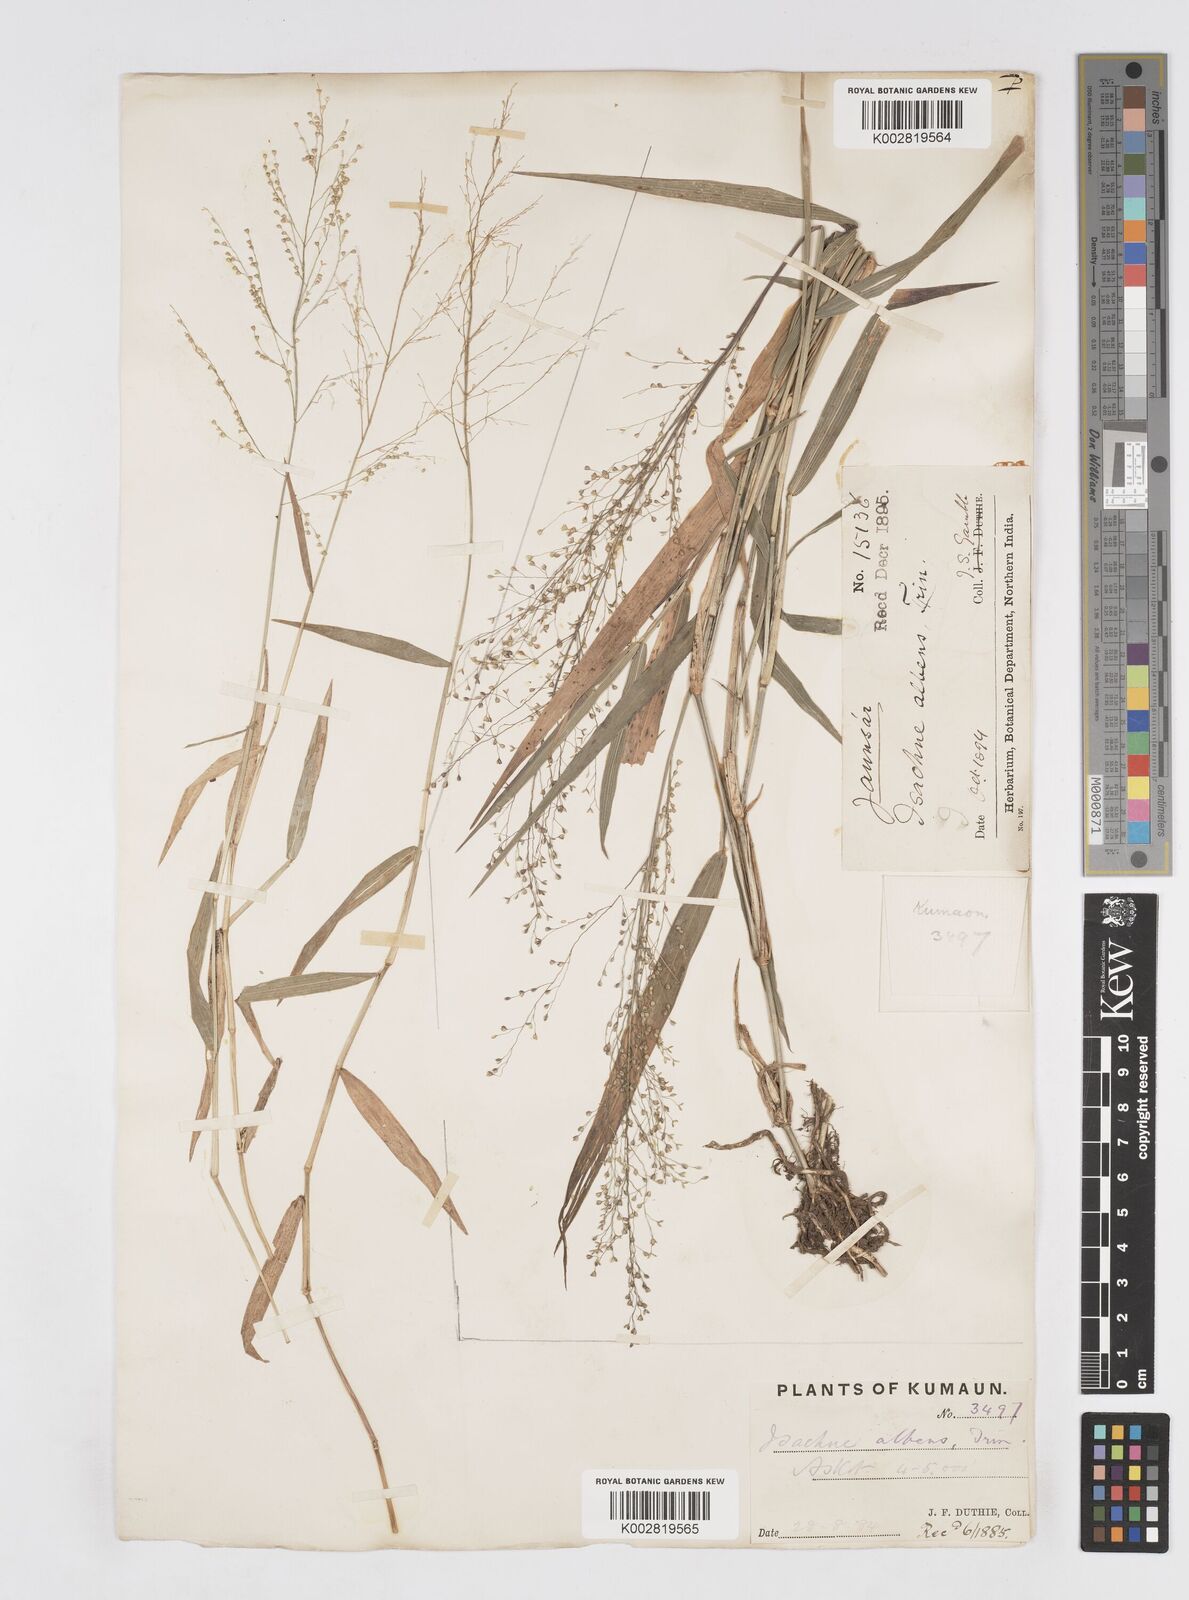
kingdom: Plantae
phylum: Tracheophyta
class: Liliopsida
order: Poales
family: Poaceae
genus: Isachne
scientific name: Isachne albens
